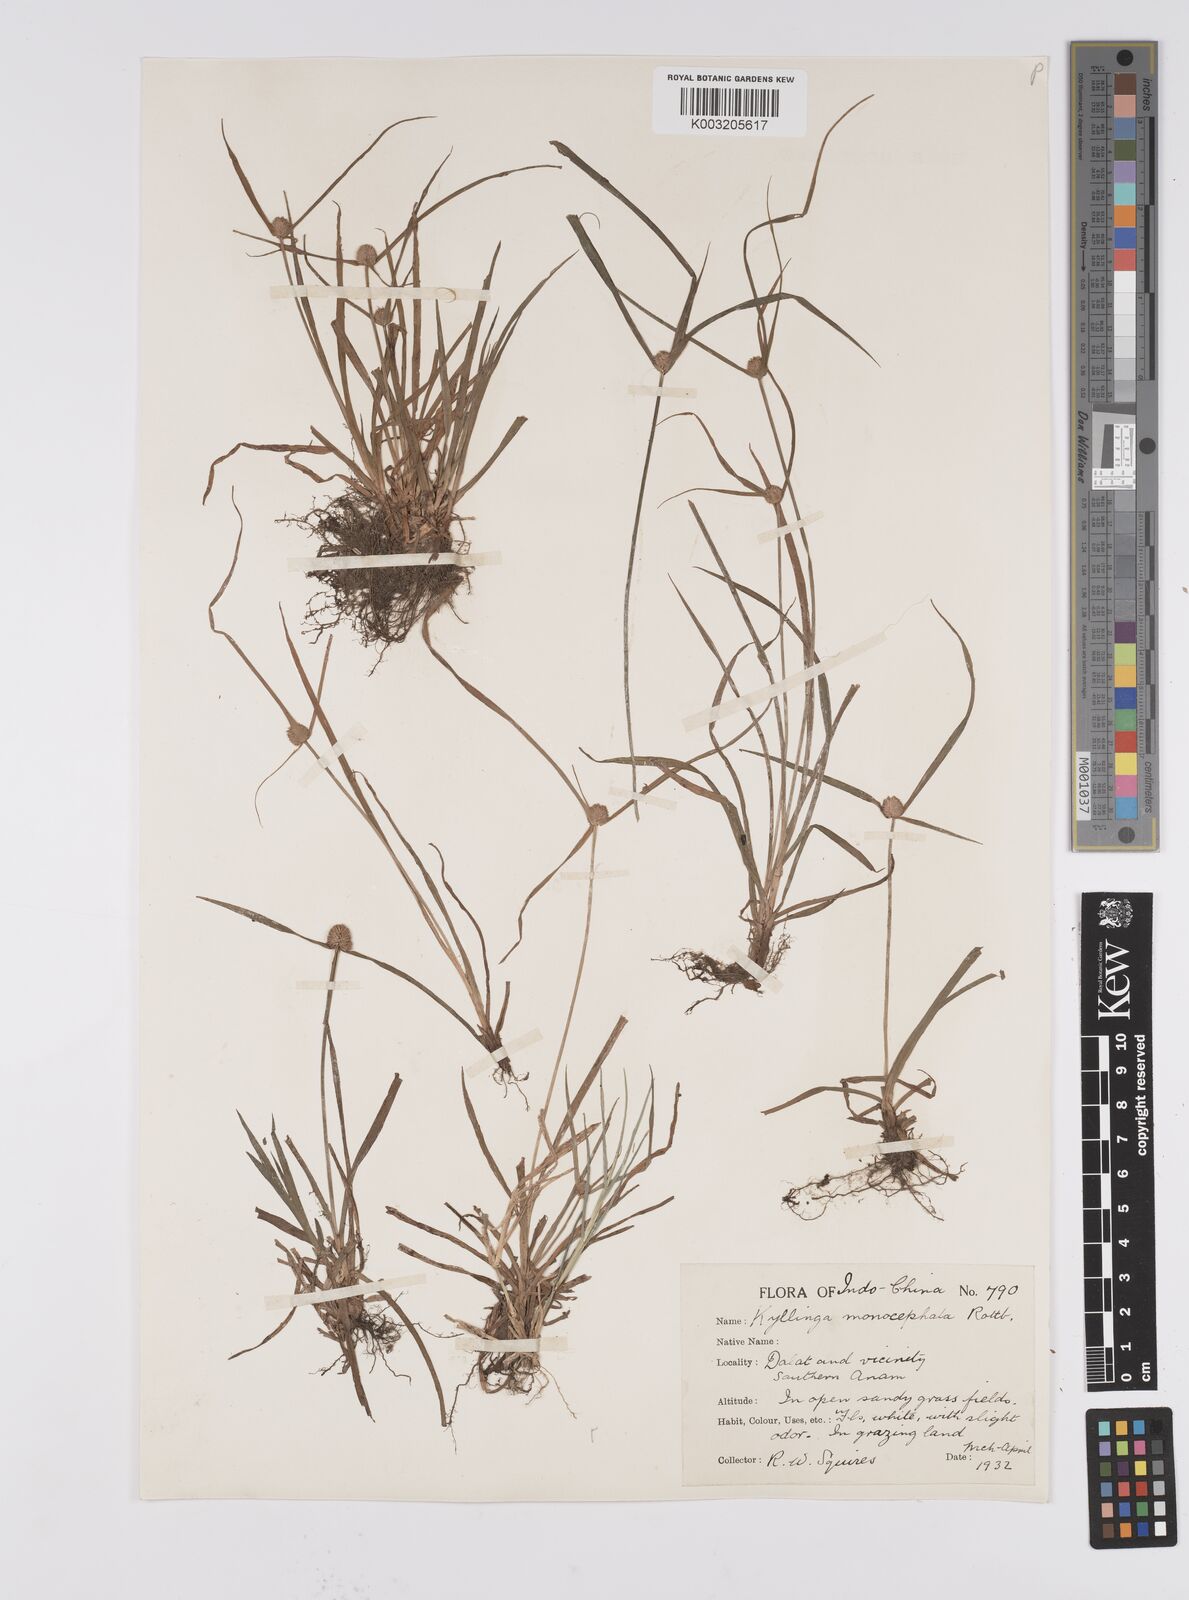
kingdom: Plantae
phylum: Tracheophyta
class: Liliopsida
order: Poales
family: Cyperaceae
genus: Cyperus
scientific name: Cyperus
